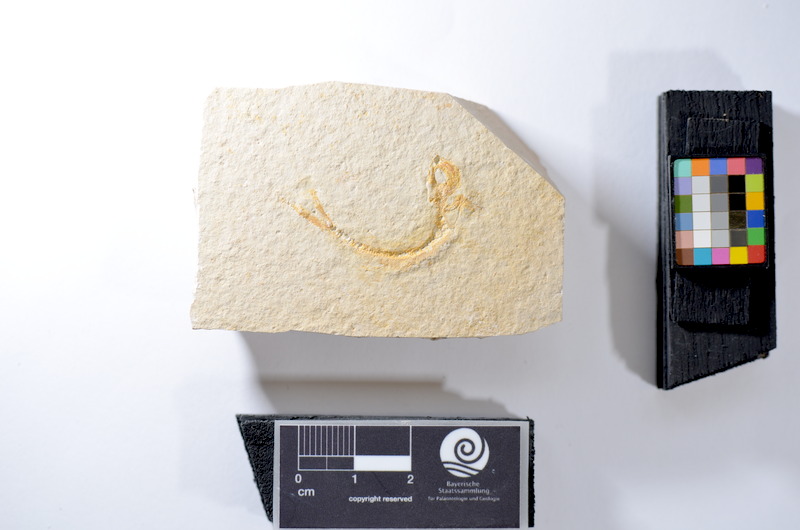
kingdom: Animalia
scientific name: Animalia
